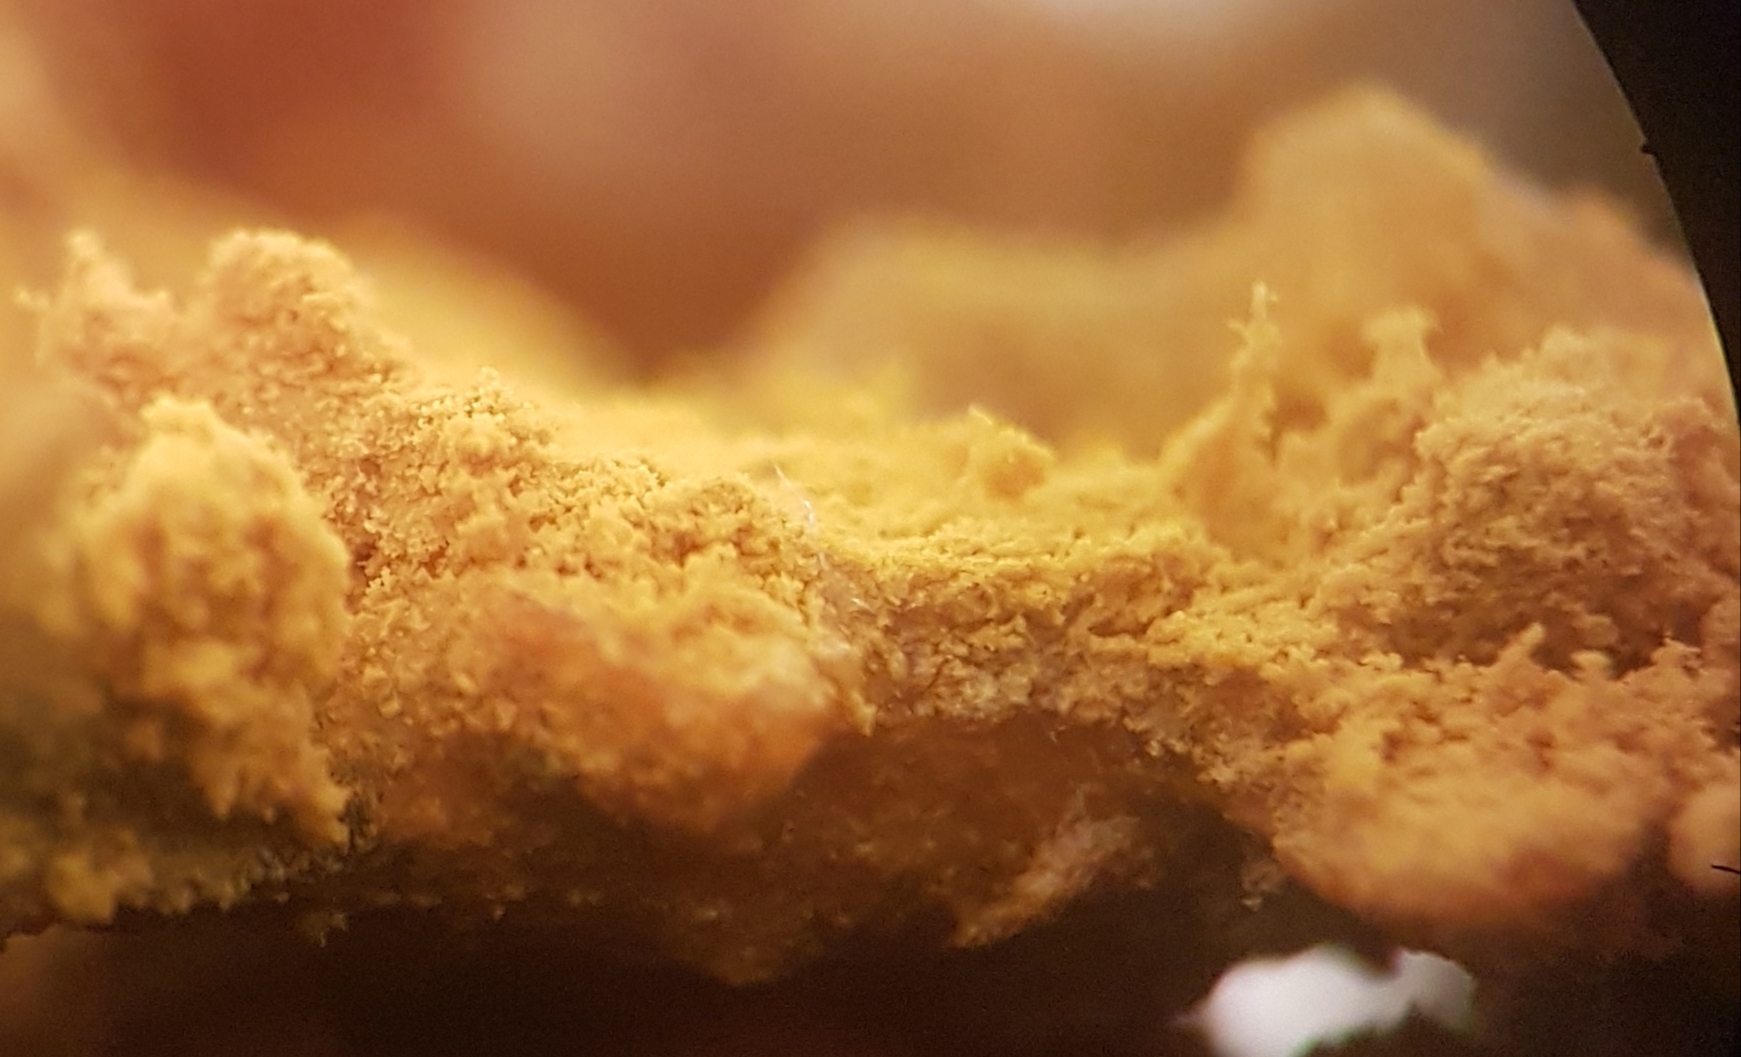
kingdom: Fungi
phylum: Ascomycota
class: Sordariomycetes
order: Hypocreales
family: Hypocreaceae
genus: Hypomyces
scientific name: Hypomyces
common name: snylteskorpe
